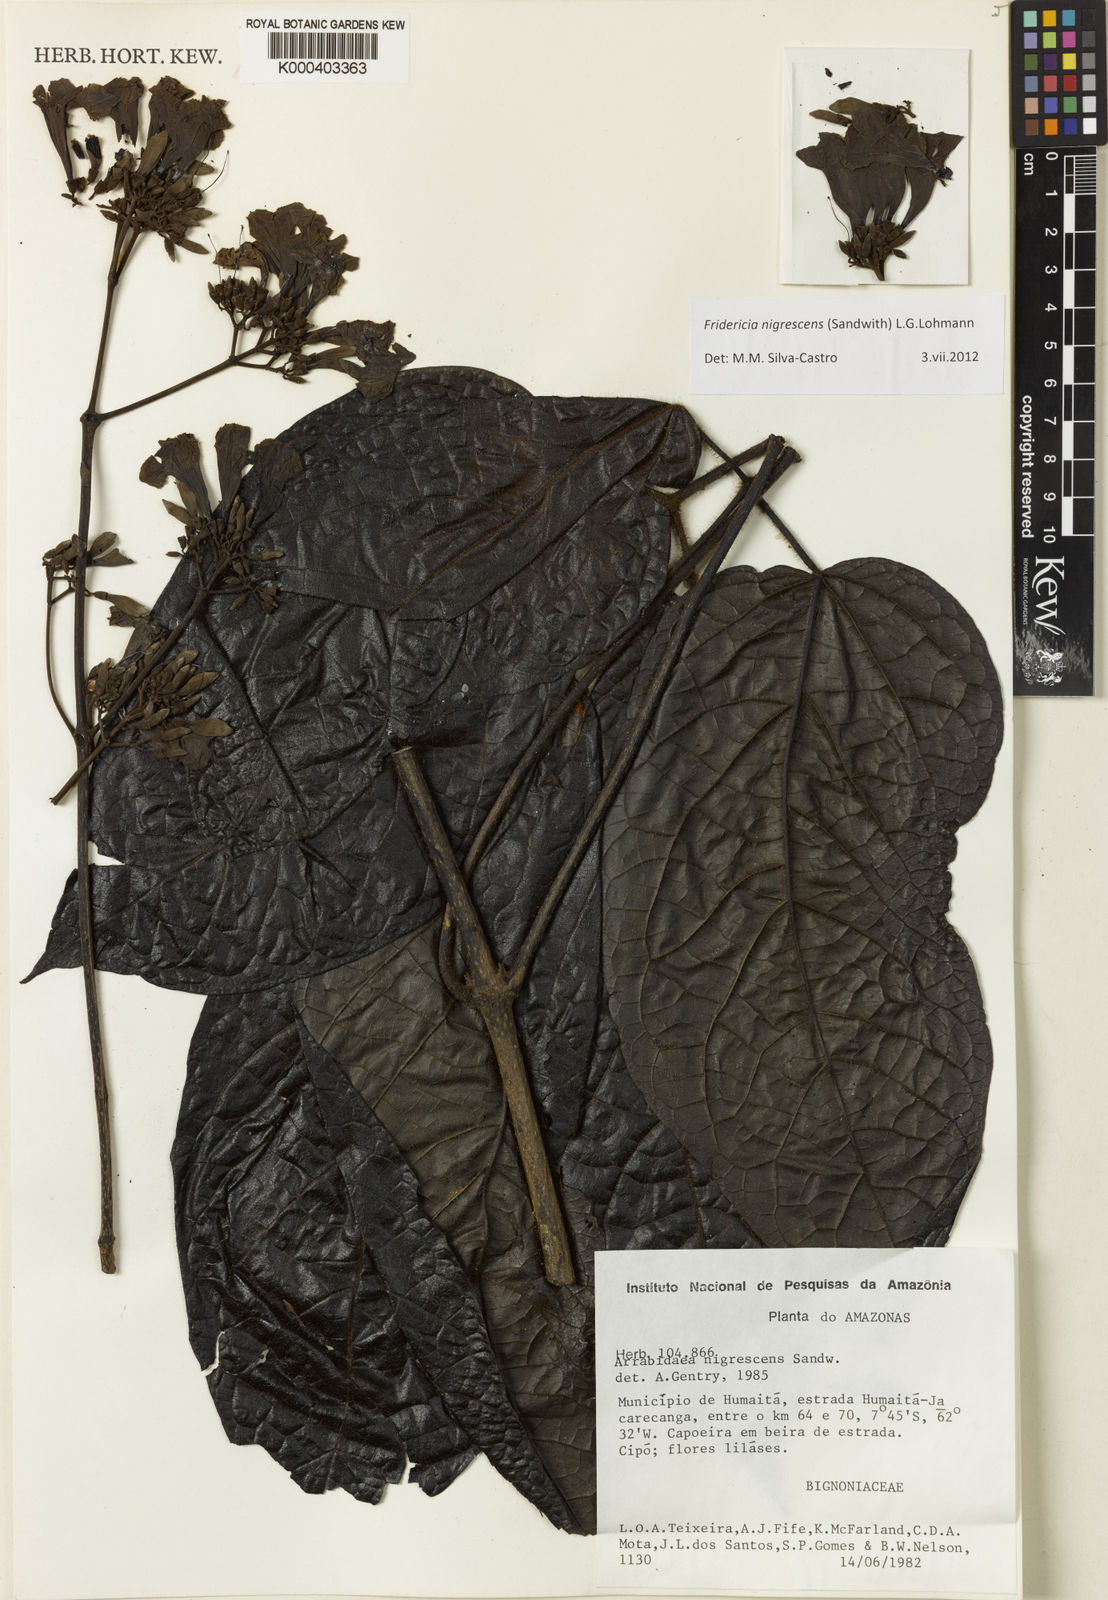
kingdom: Plantae
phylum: Tracheophyta
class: Magnoliopsida
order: Lamiales
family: Bignoniaceae
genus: Fridericia
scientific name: Fridericia nigrescens
